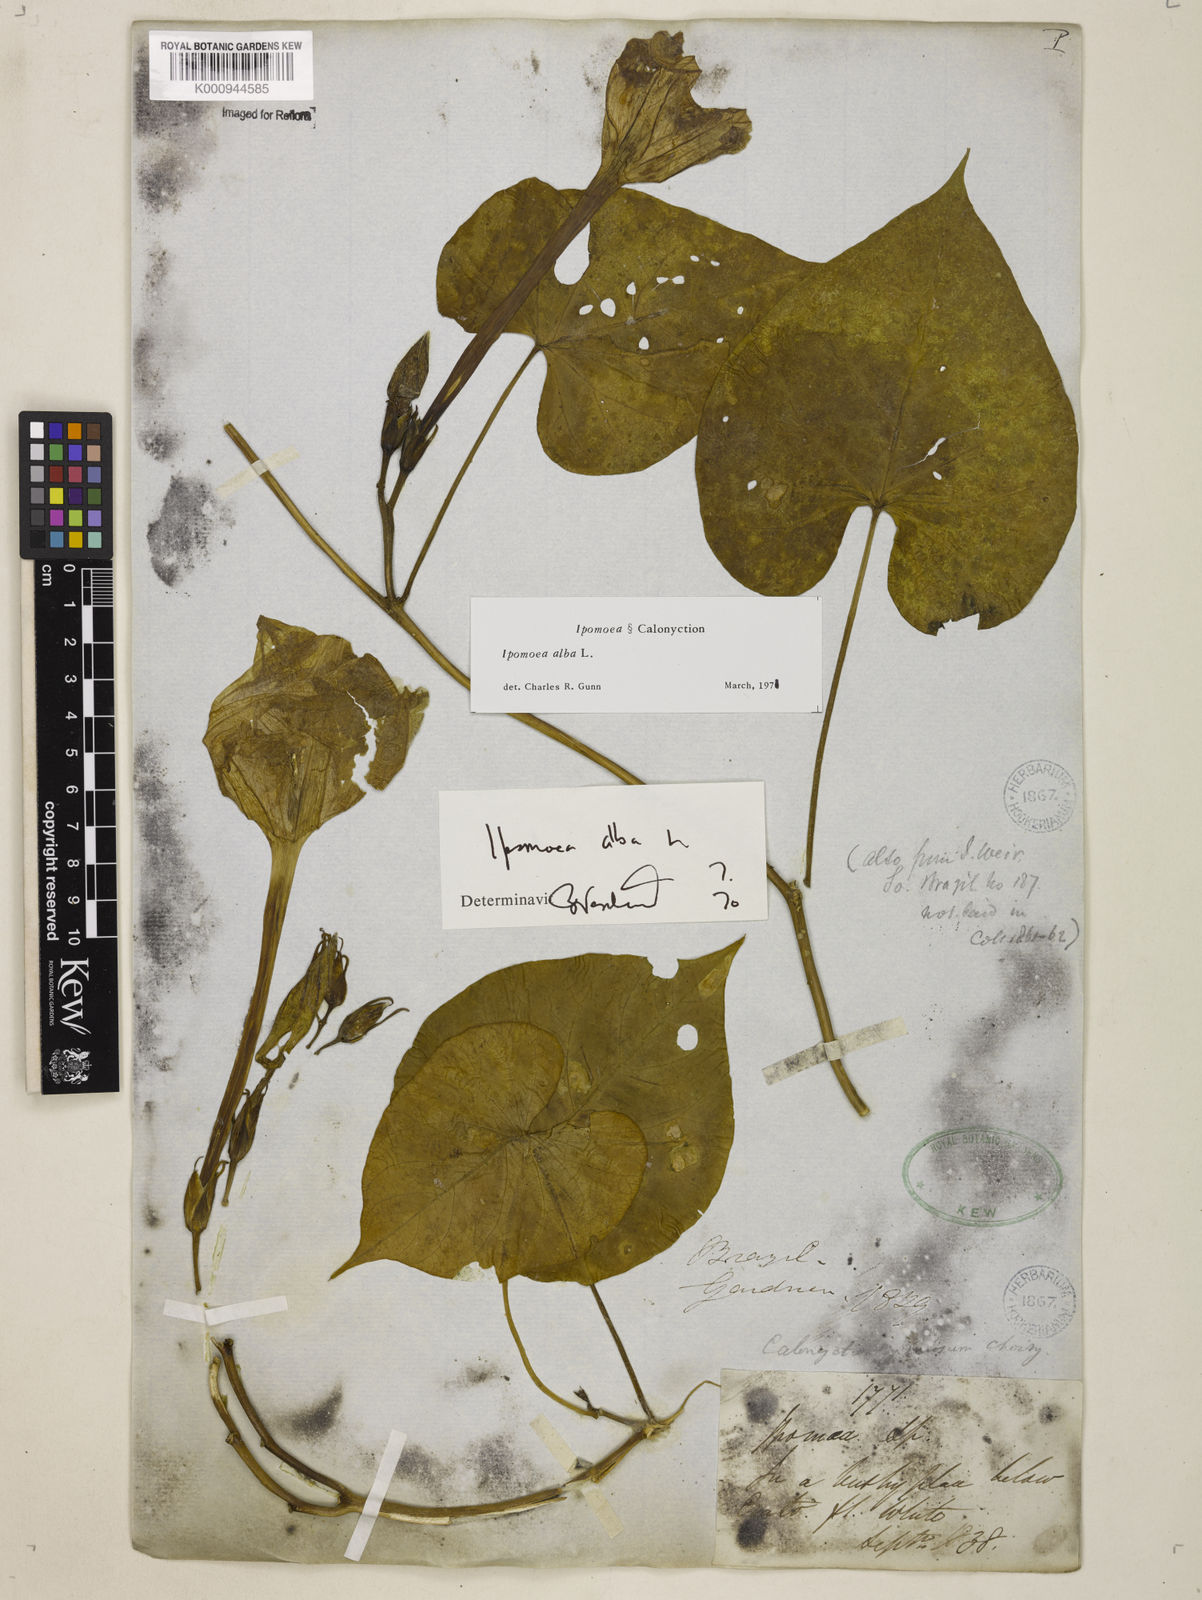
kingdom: Plantae
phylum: Tracheophyta
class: Magnoliopsida
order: Solanales
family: Convolvulaceae
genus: Ipomoea
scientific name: Ipomoea alba
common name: Moonflower
